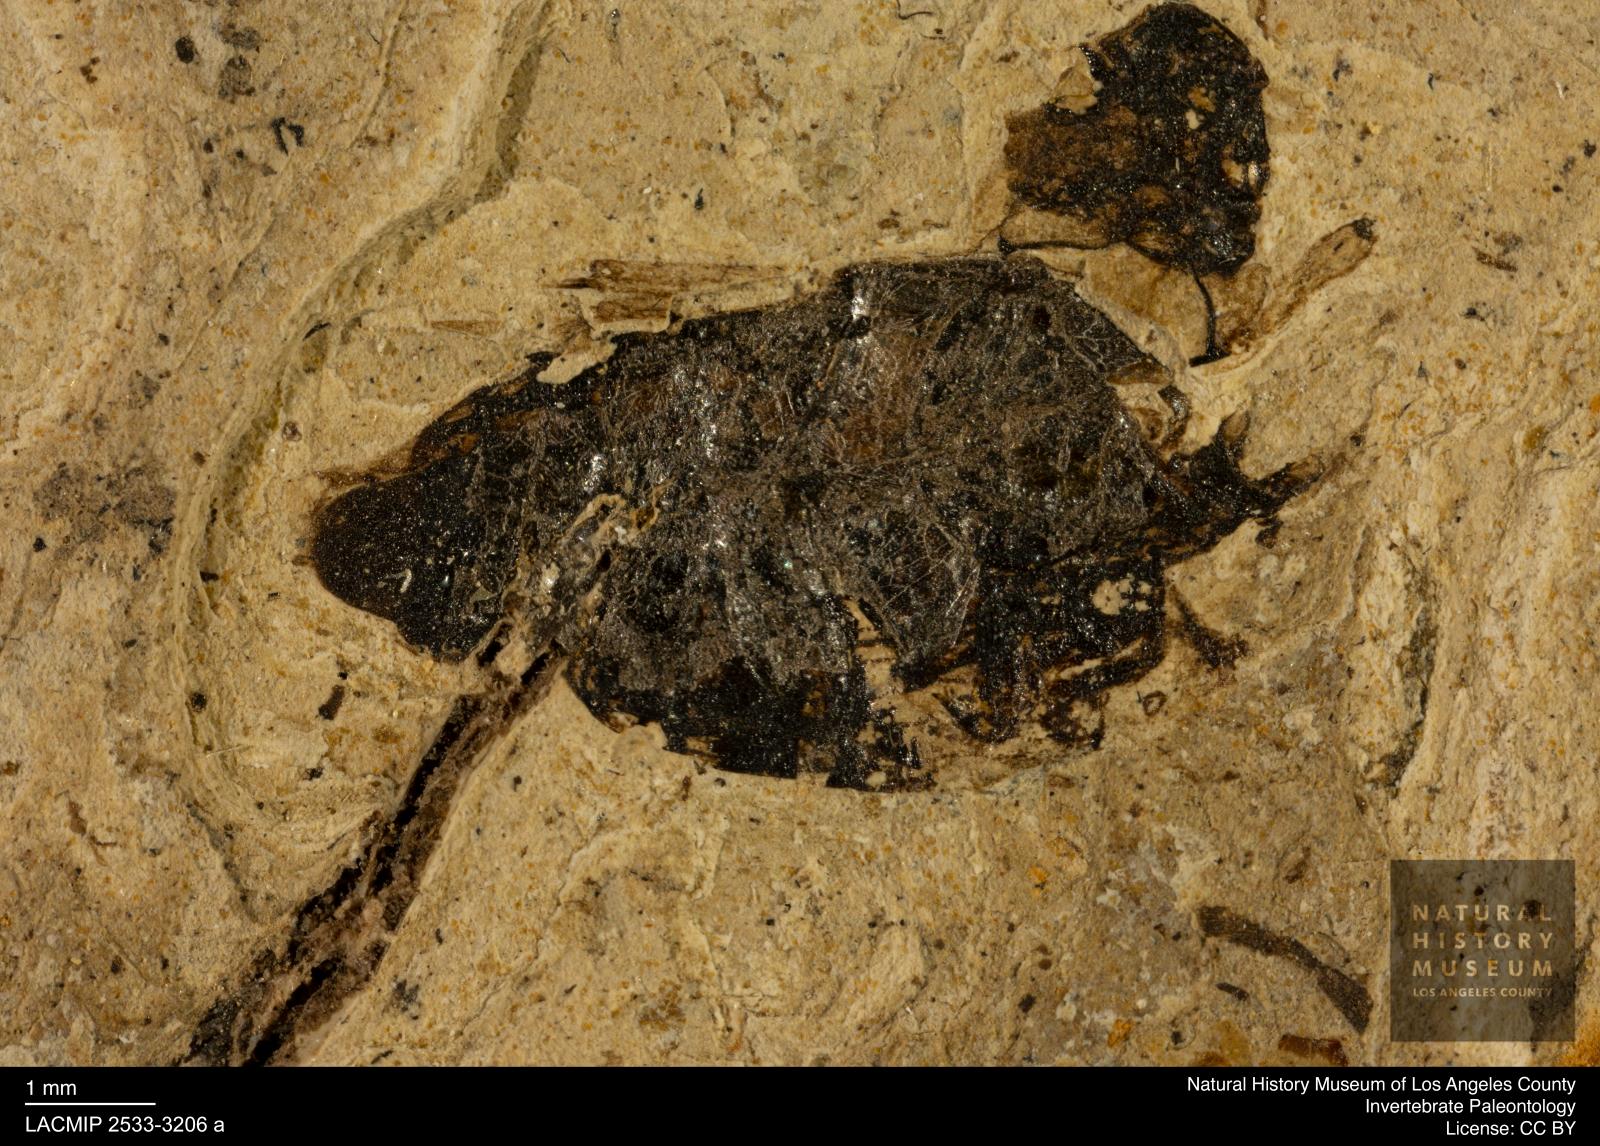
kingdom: Animalia
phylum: Arthropoda
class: Insecta
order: Coleoptera
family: Hydrophilidae
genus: Berosus
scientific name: Berosus morticinus
